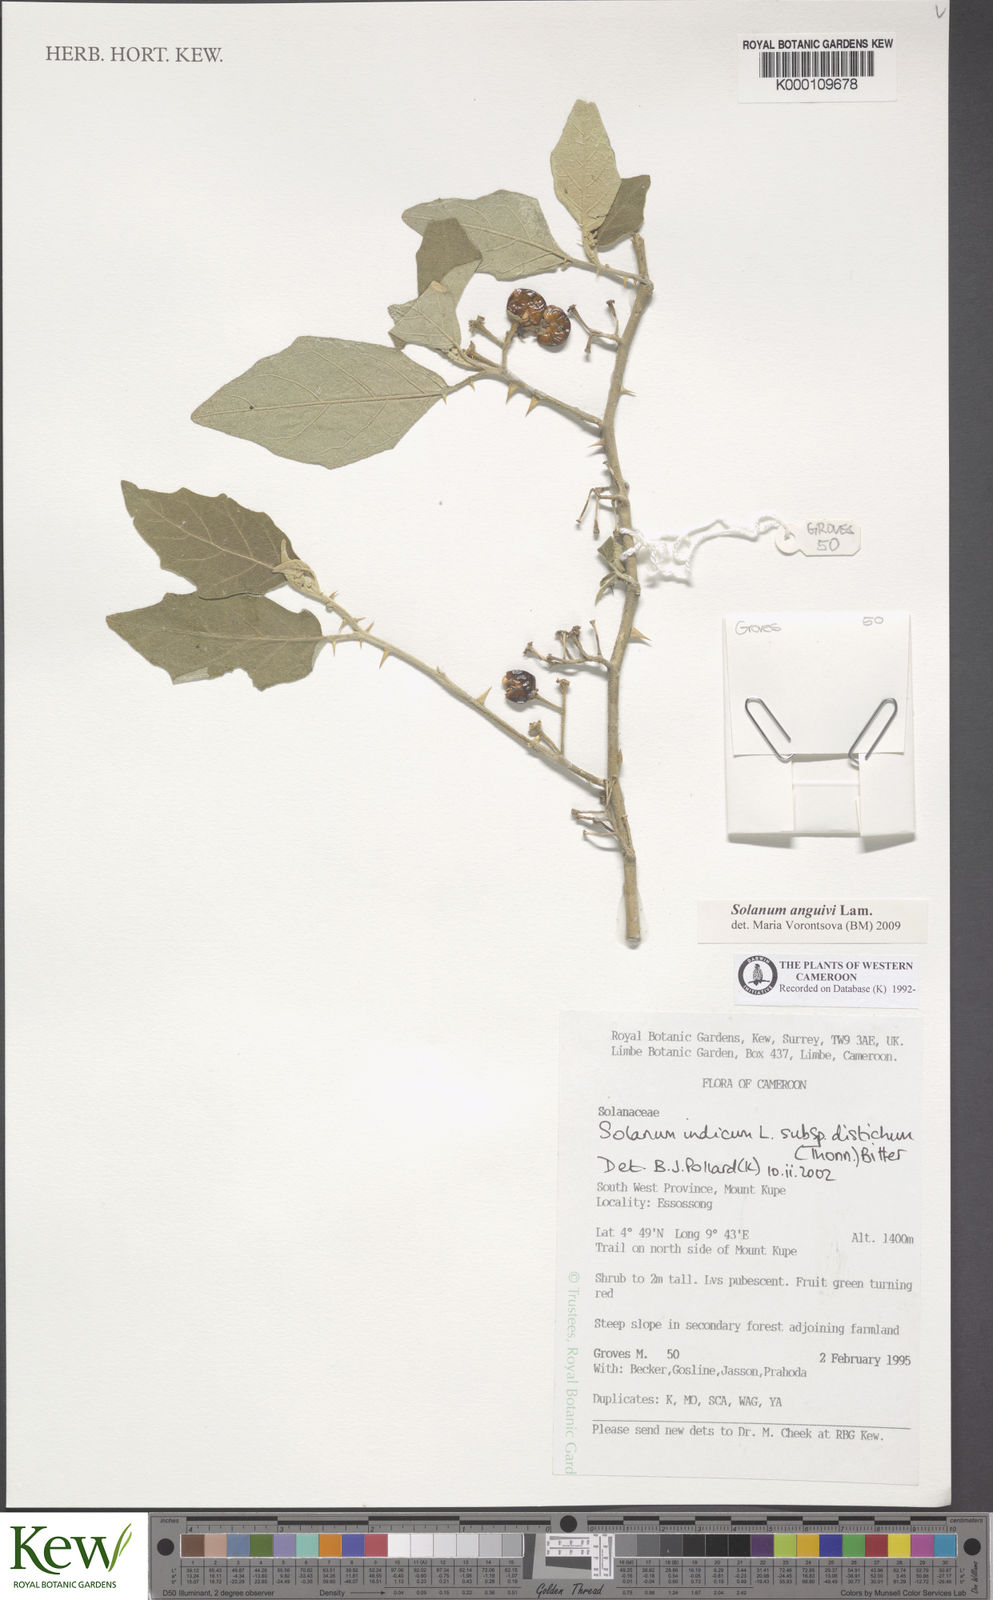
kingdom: Plantae
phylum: Tracheophyta
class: Magnoliopsida
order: Solanales
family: Solanaceae
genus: Solanum
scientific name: Solanum anguivi
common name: Forest bitterberry
